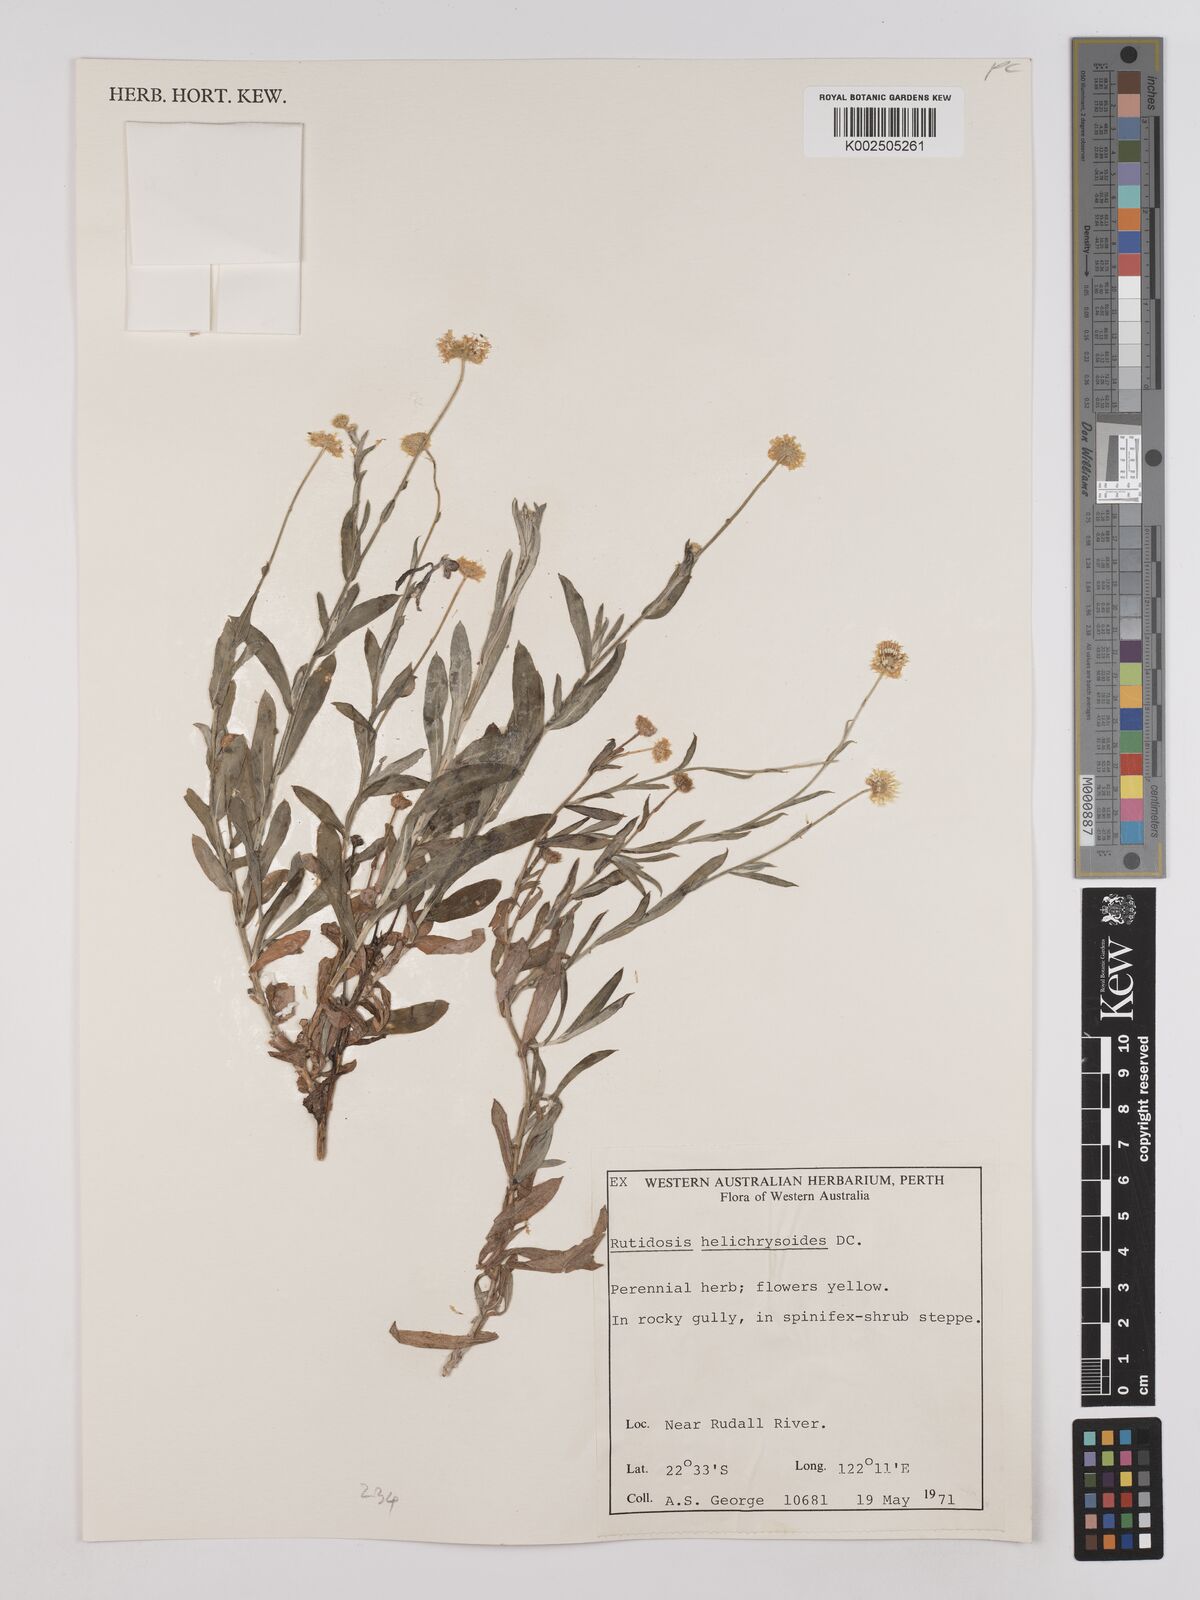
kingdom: Plantae
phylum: Tracheophyta
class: Magnoliopsida
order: Asterales
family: Asteraceae
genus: Rutidosis
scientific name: Rutidosis helichrysoides
